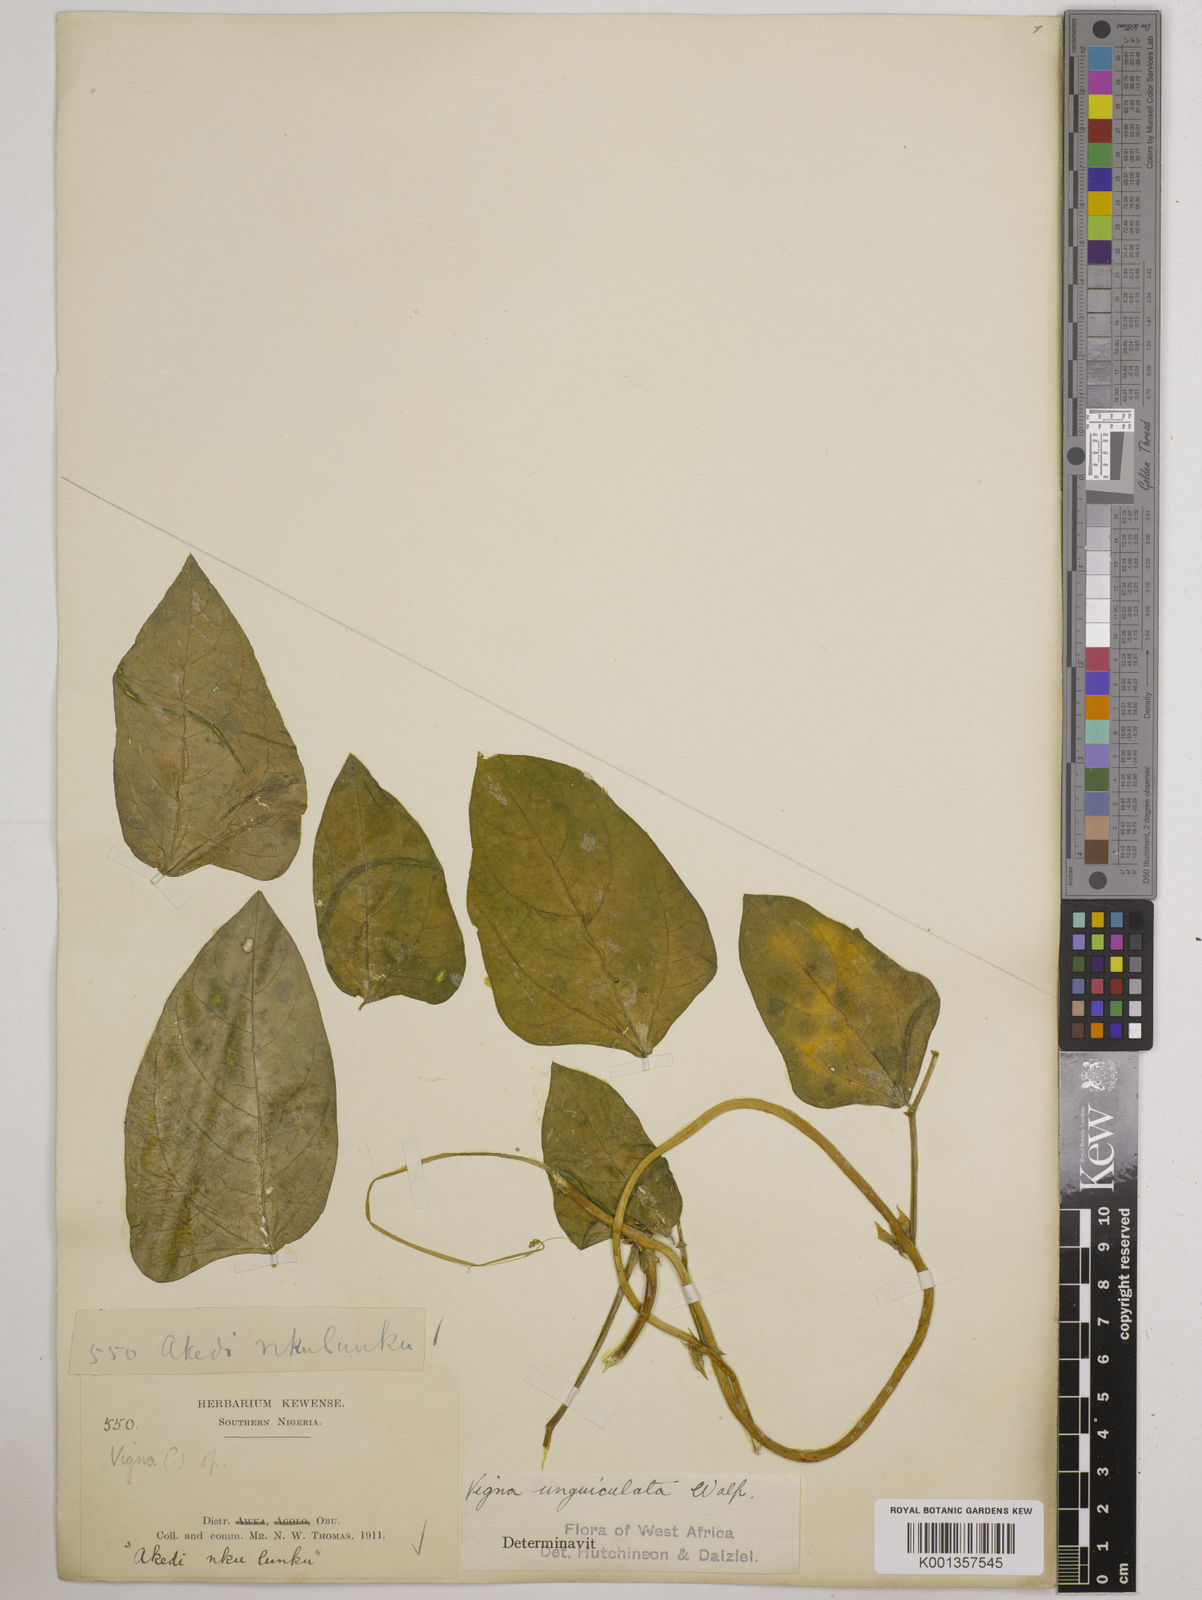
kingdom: Plantae
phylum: Tracheophyta
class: Magnoliopsida
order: Fabales
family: Fabaceae
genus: Vigna
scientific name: Vigna
